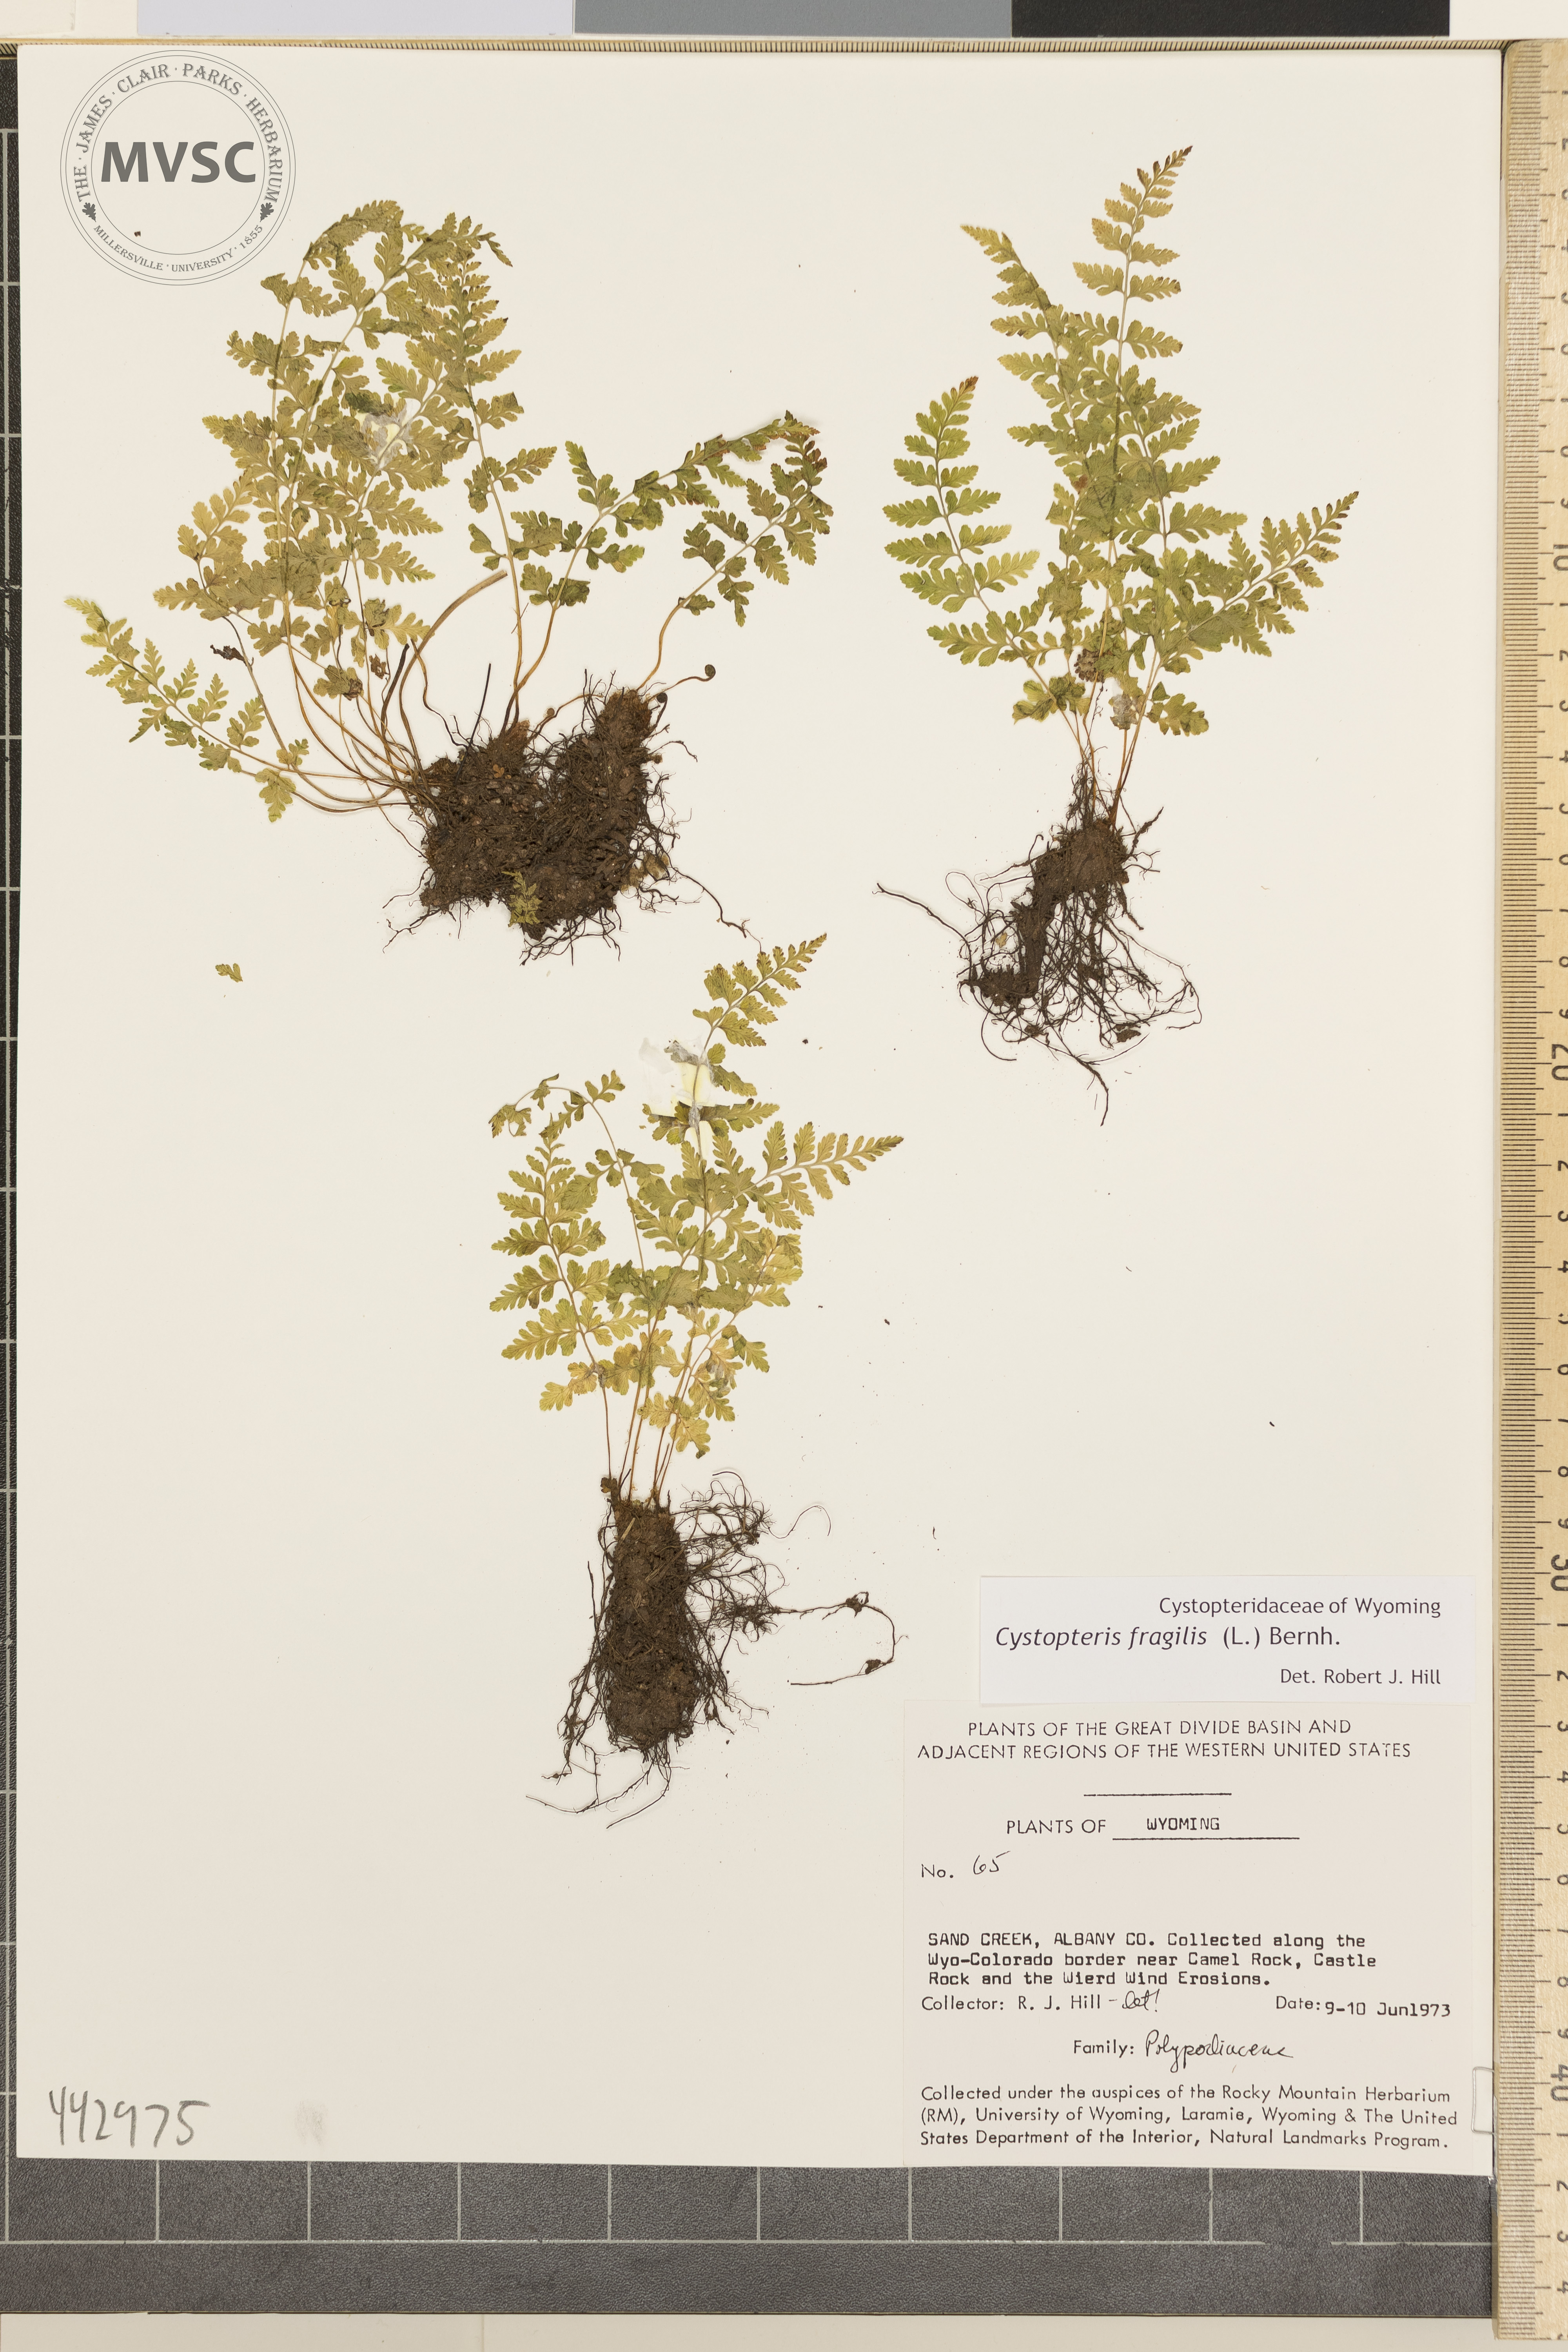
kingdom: Plantae
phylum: Tracheophyta
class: Polypodiopsida
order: Polypodiales
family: Cystopteridaceae
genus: Cystopteris
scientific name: Cystopteris fragilis
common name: Brittle bladder fern
